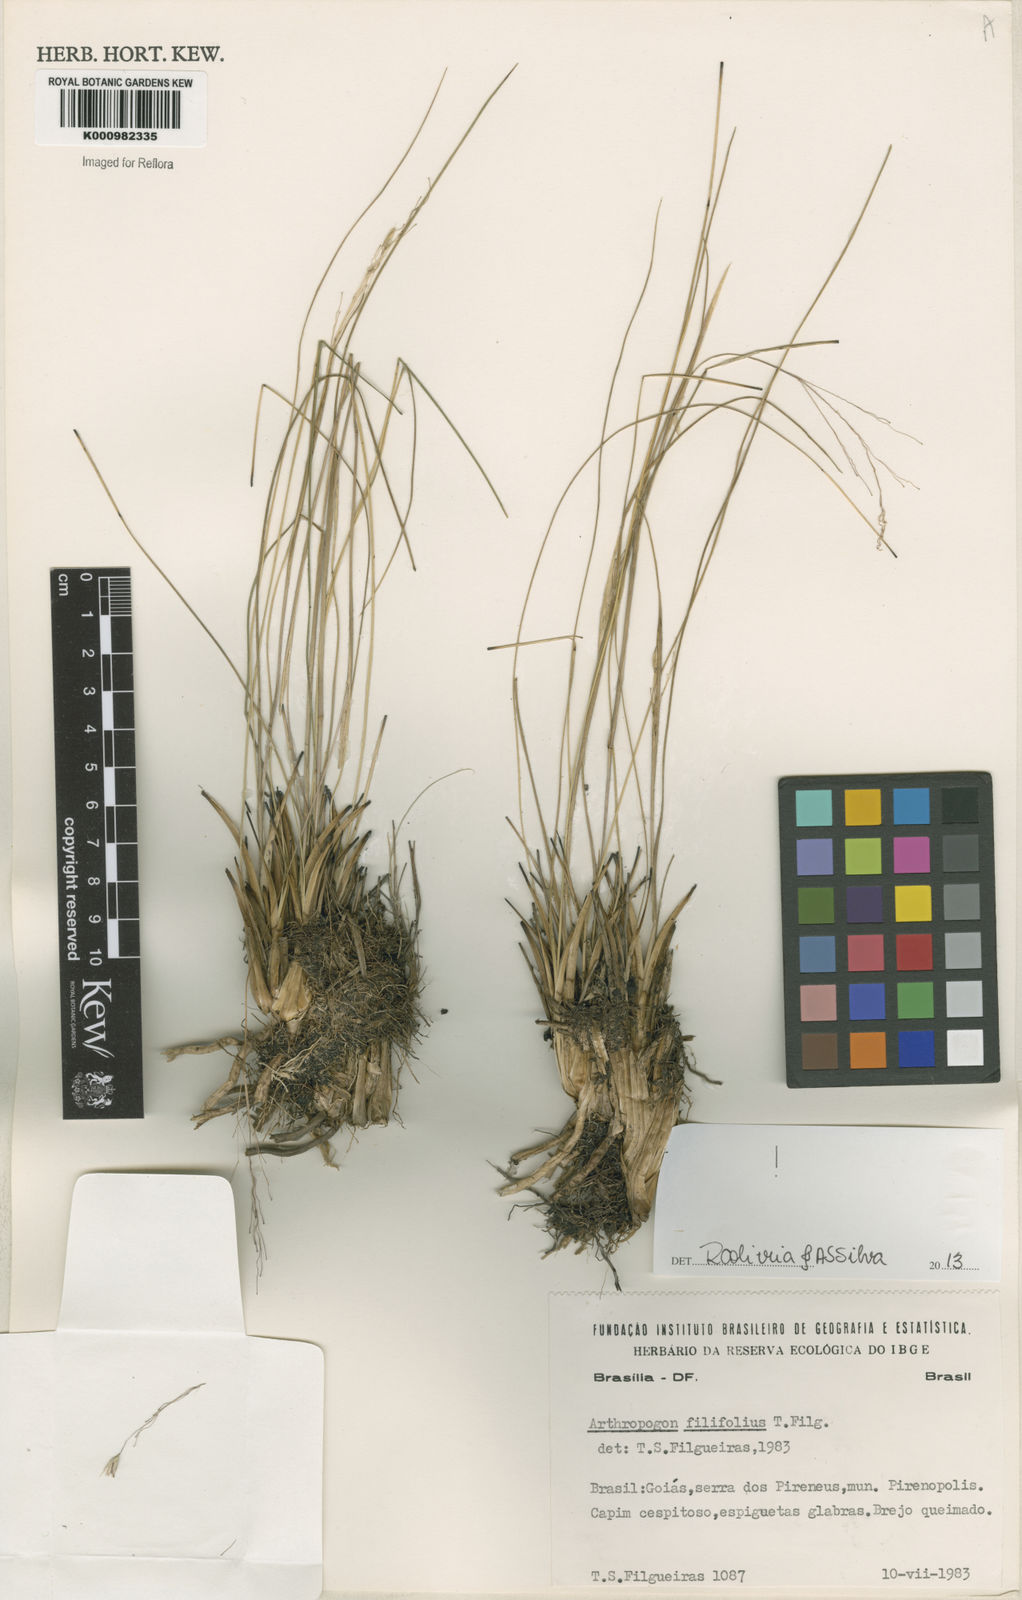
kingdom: Plantae
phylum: Tracheophyta
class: Liliopsida
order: Poales
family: Poaceae
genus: Arthropogon
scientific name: Arthropogon filifolius
